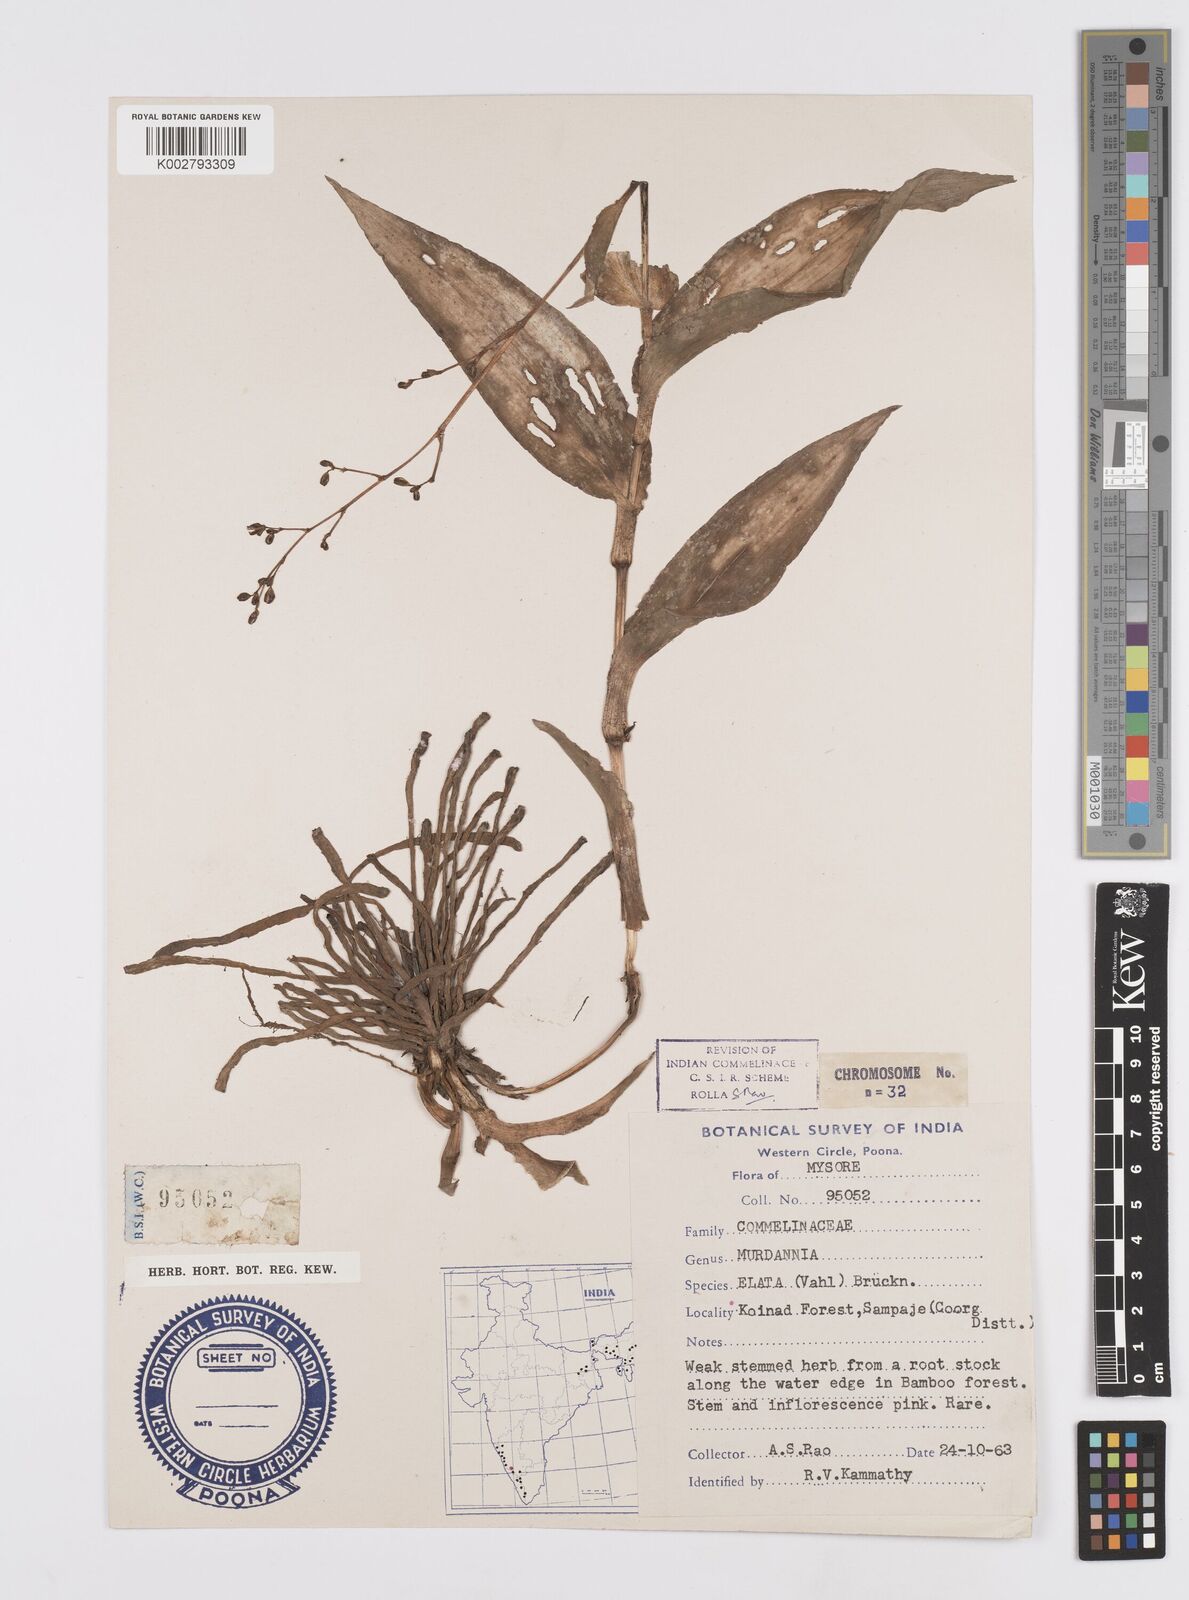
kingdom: Plantae
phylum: Tracheophyta
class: Liliopsida
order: Commelinales
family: Commelinaceae
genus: Murdannia
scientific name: Murdannia japonica
